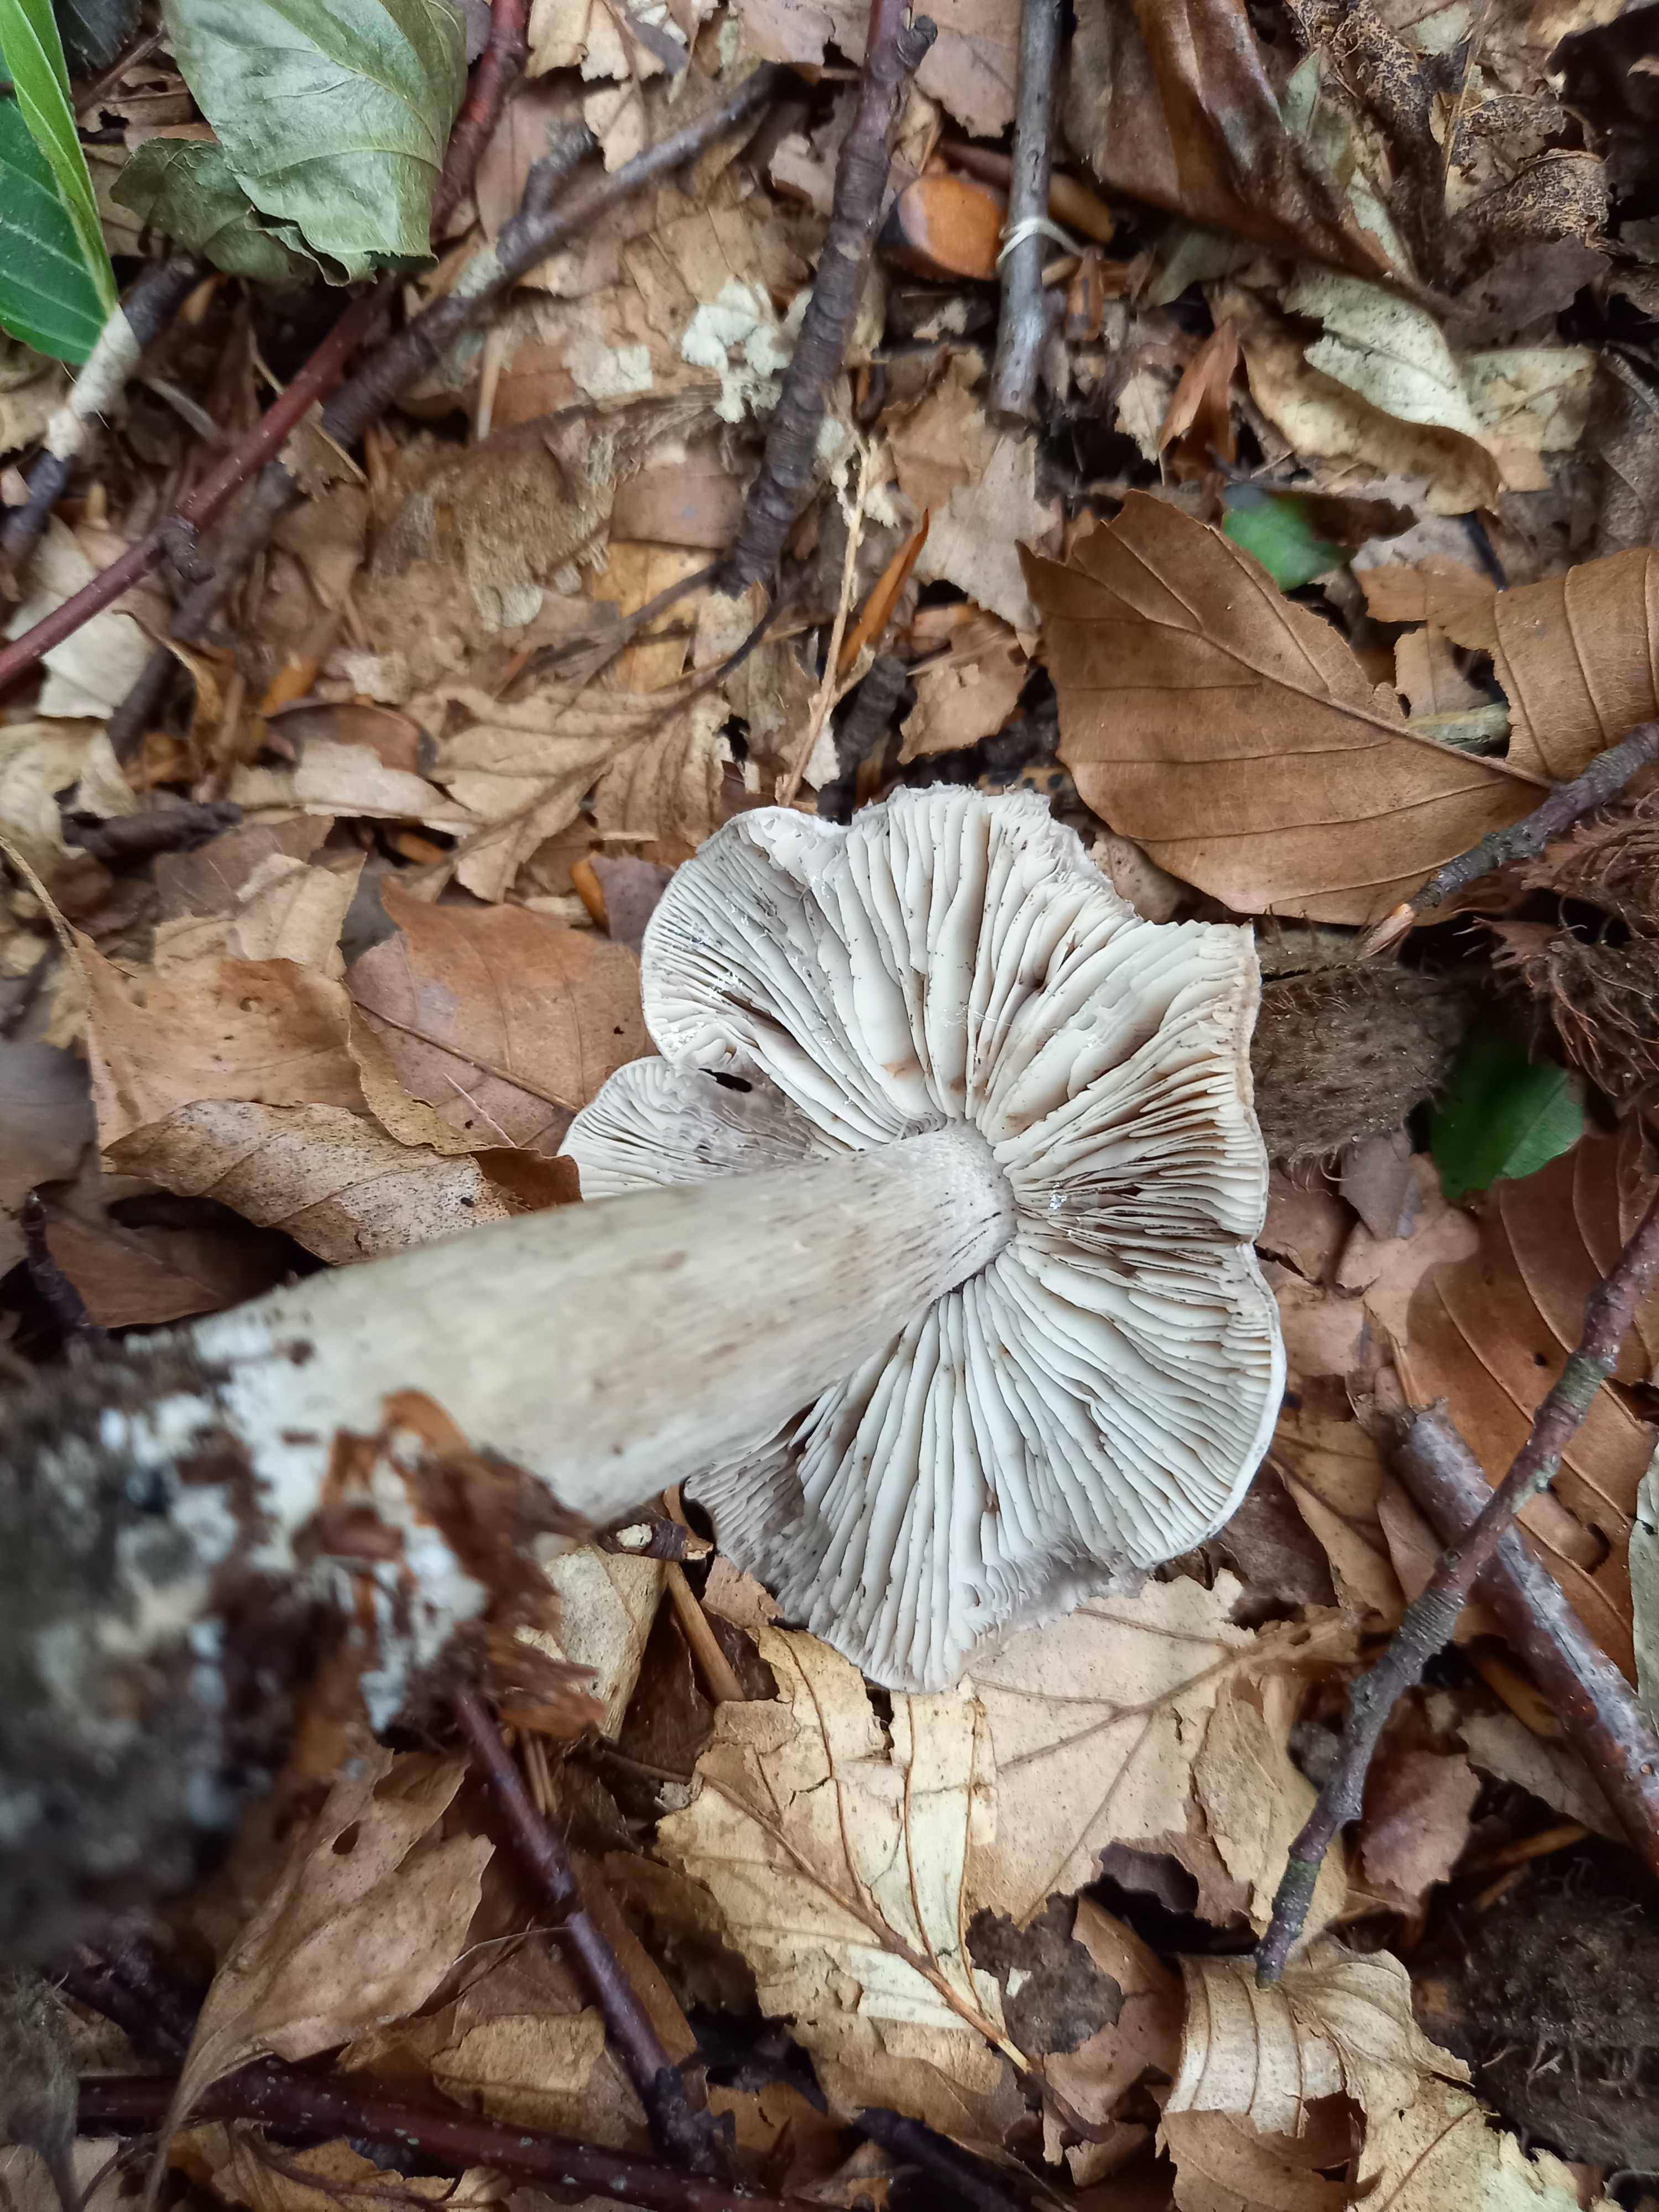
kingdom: Fungi
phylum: Basidiomycota
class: Agaricomycetes
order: Agaricales
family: Tricholomataceae
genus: Tricholoma
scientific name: Tricholoma sciodes
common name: stribet ridderhat
